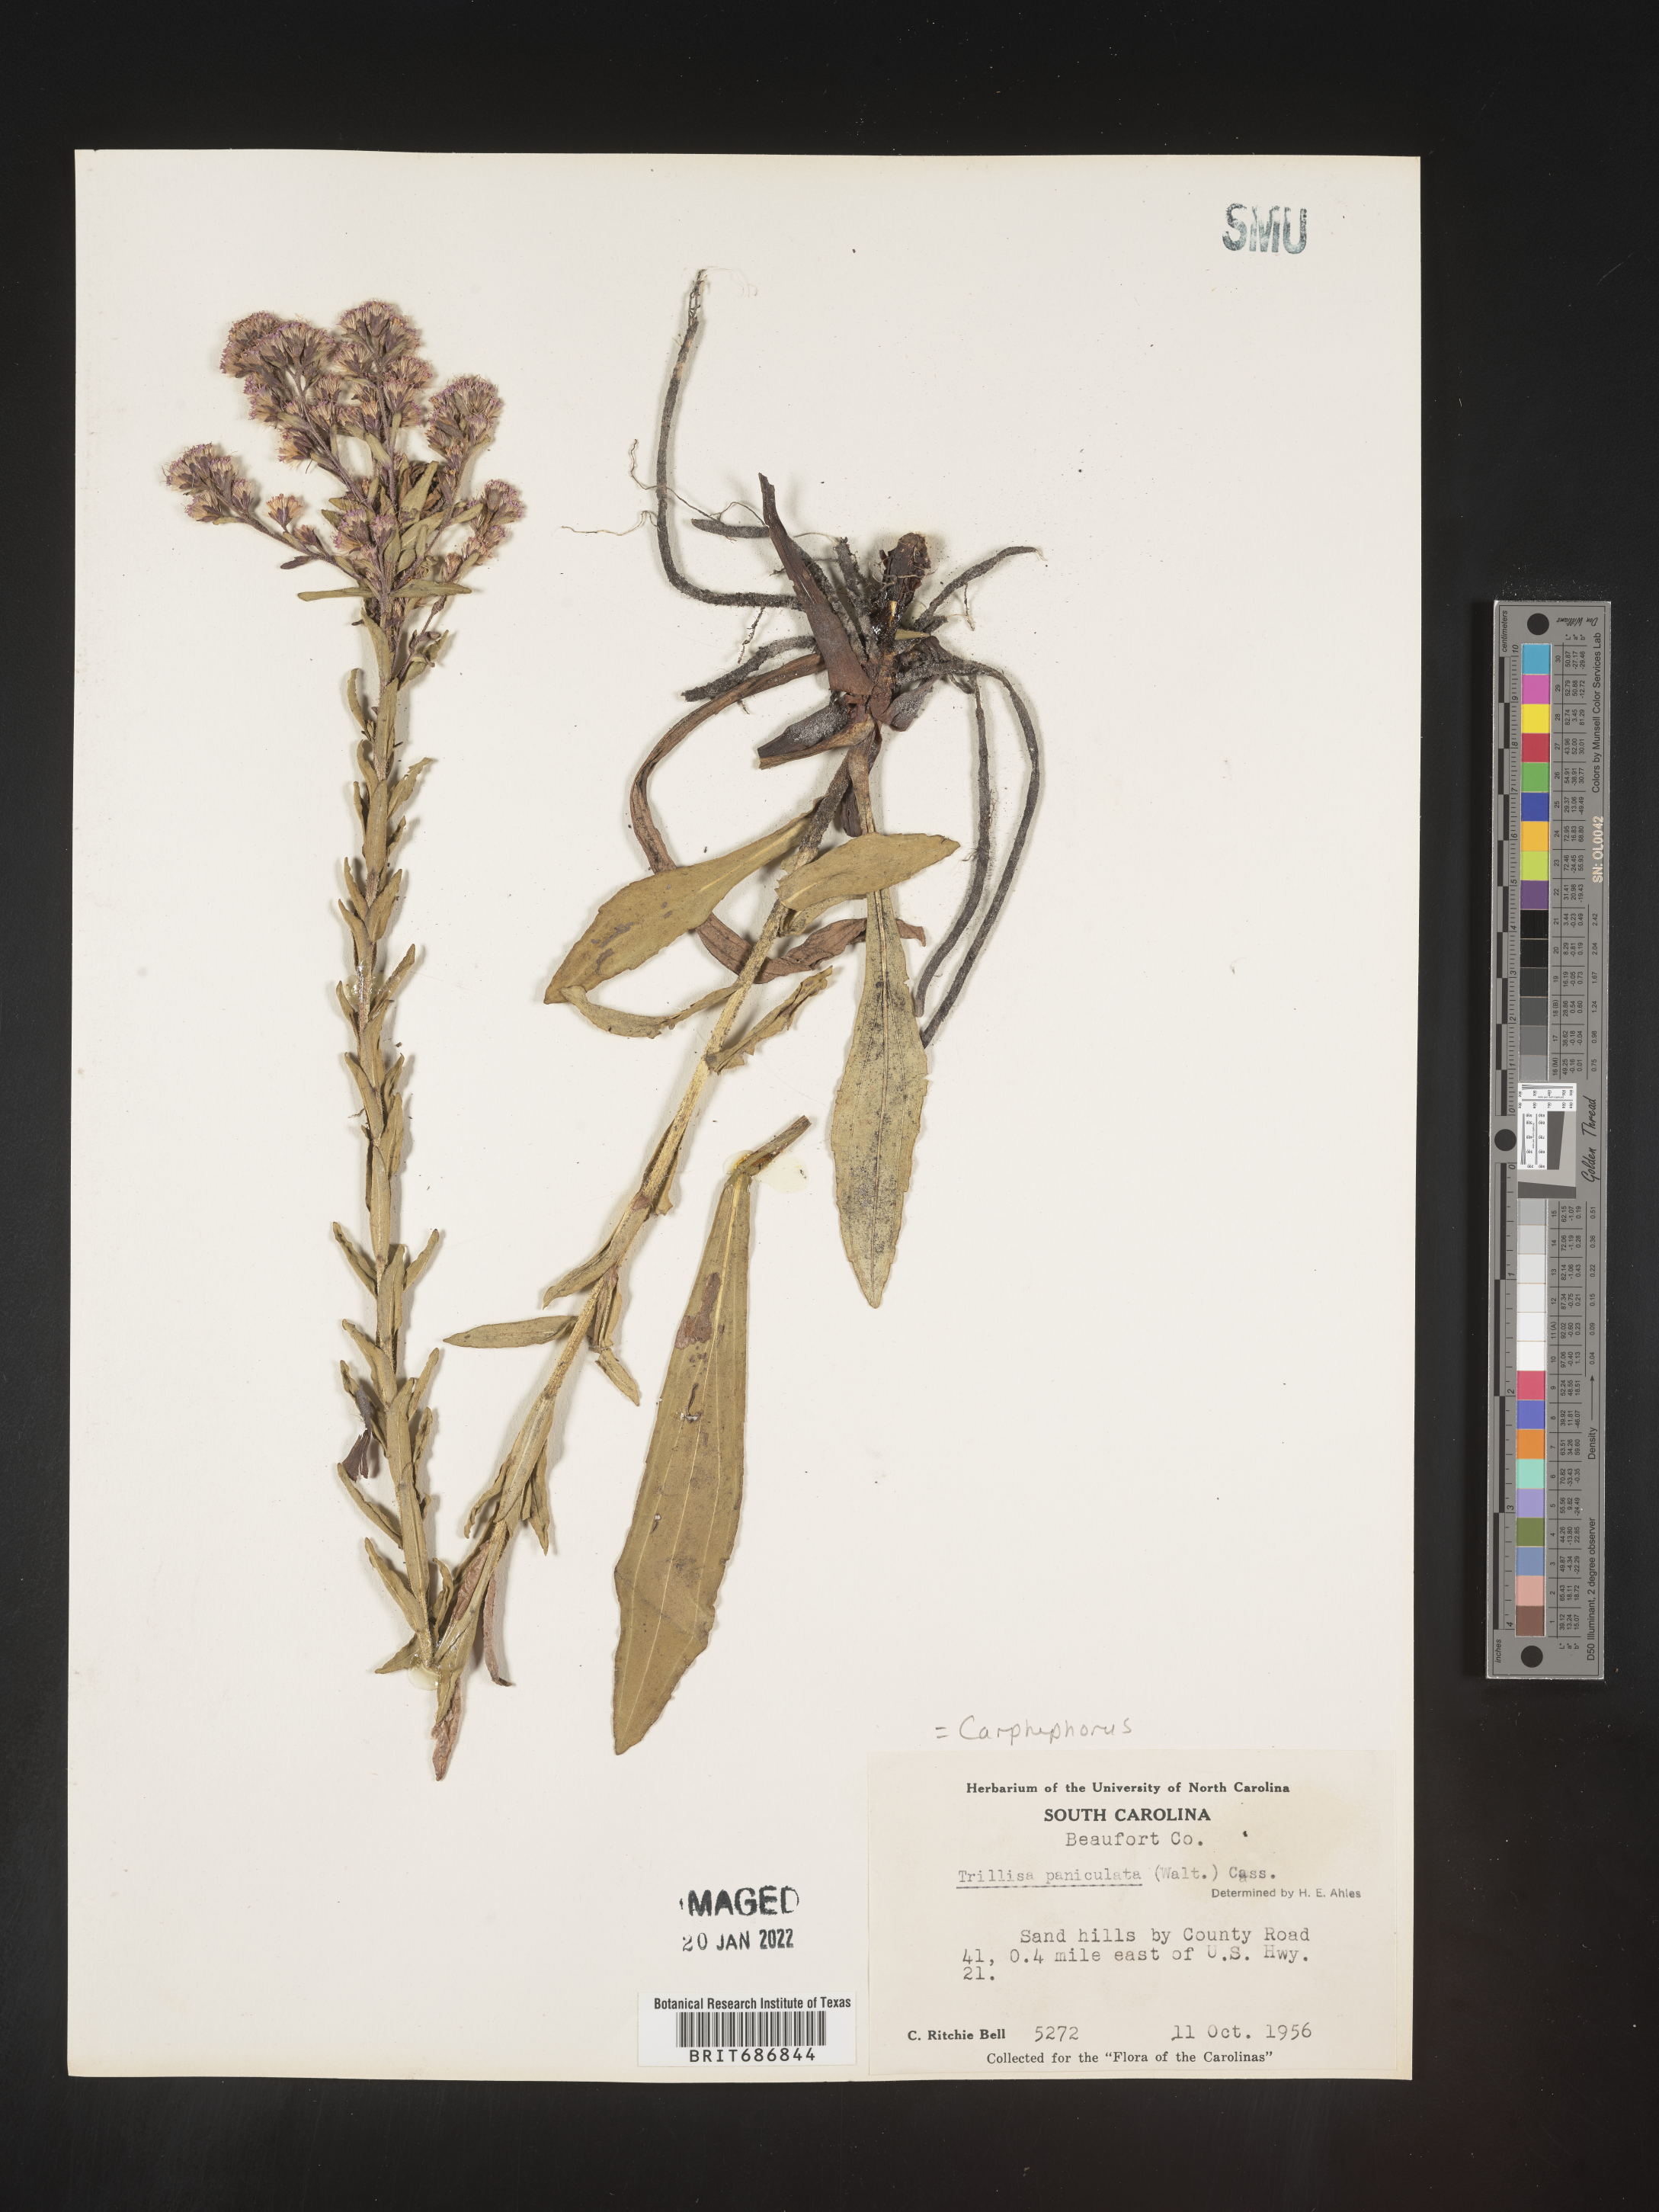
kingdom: Plantae
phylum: Tracheophyta
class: Magnoliopsida
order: Asterales
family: Asteraceae
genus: Carphephorus
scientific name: Carphephorus paniculatus
